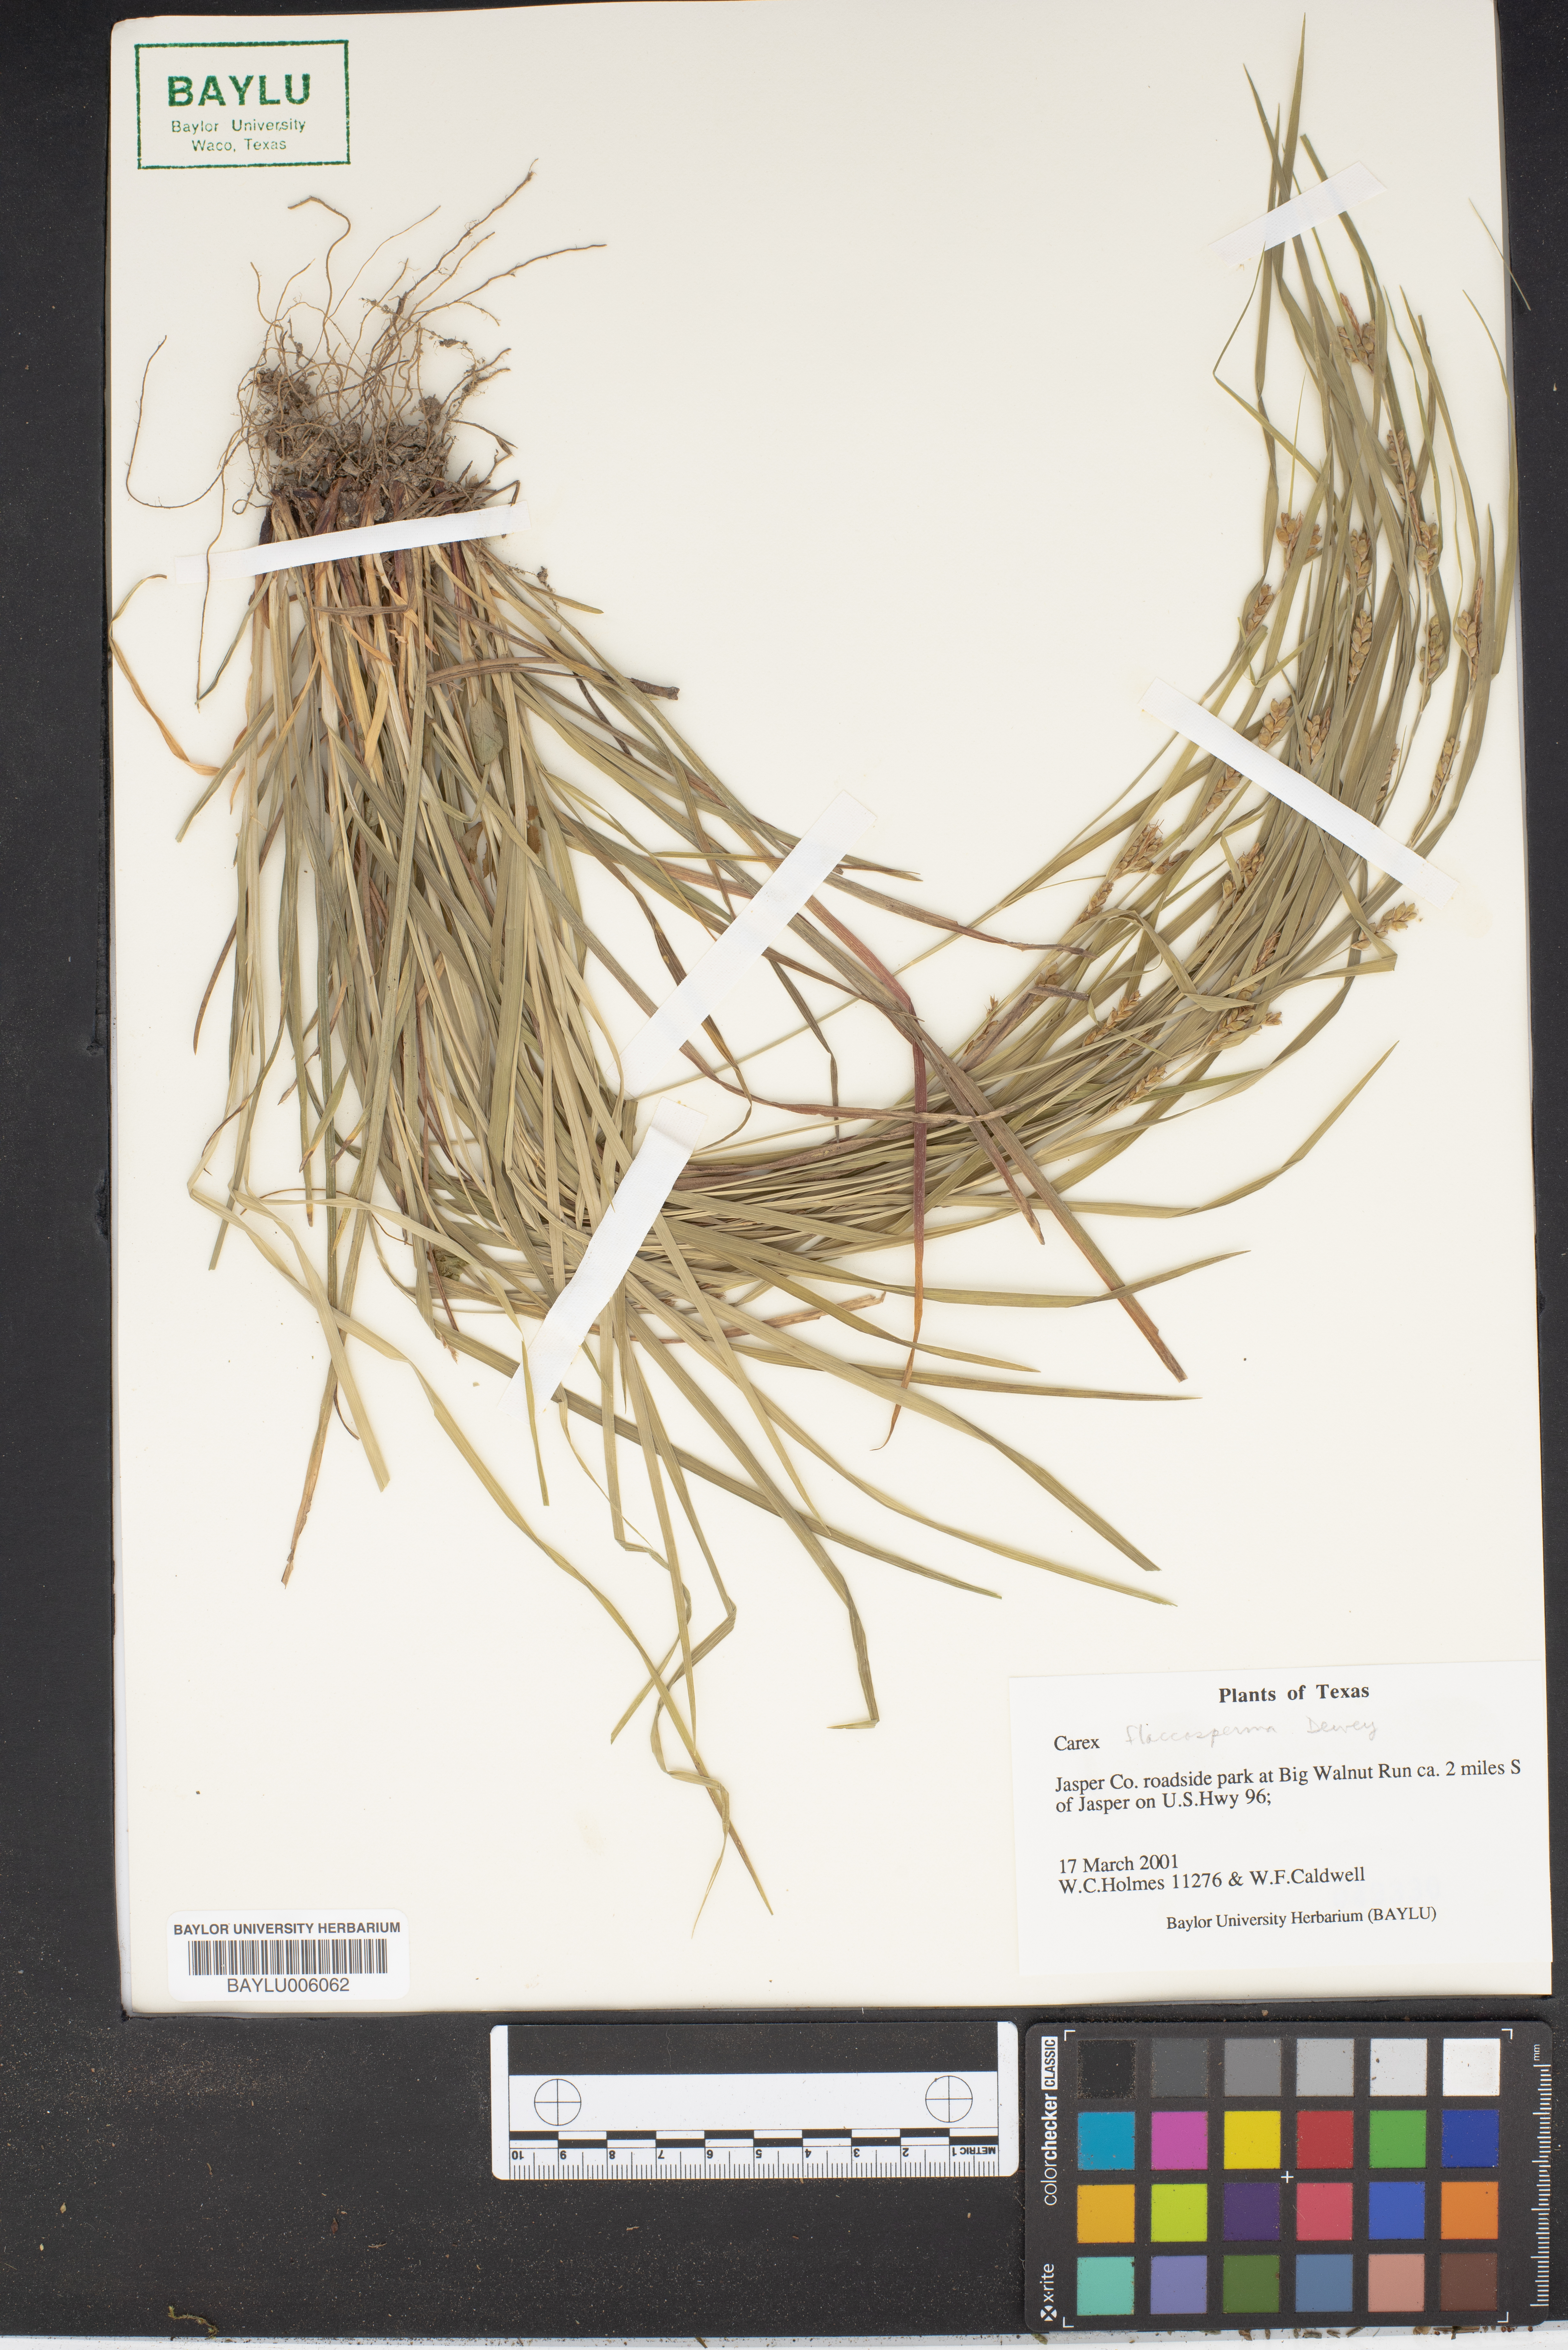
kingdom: Plantae
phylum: Tracheophyta
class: Liliopsida
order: Poales
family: Cyperaceae
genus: Carex
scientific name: Carex flaccosperma
